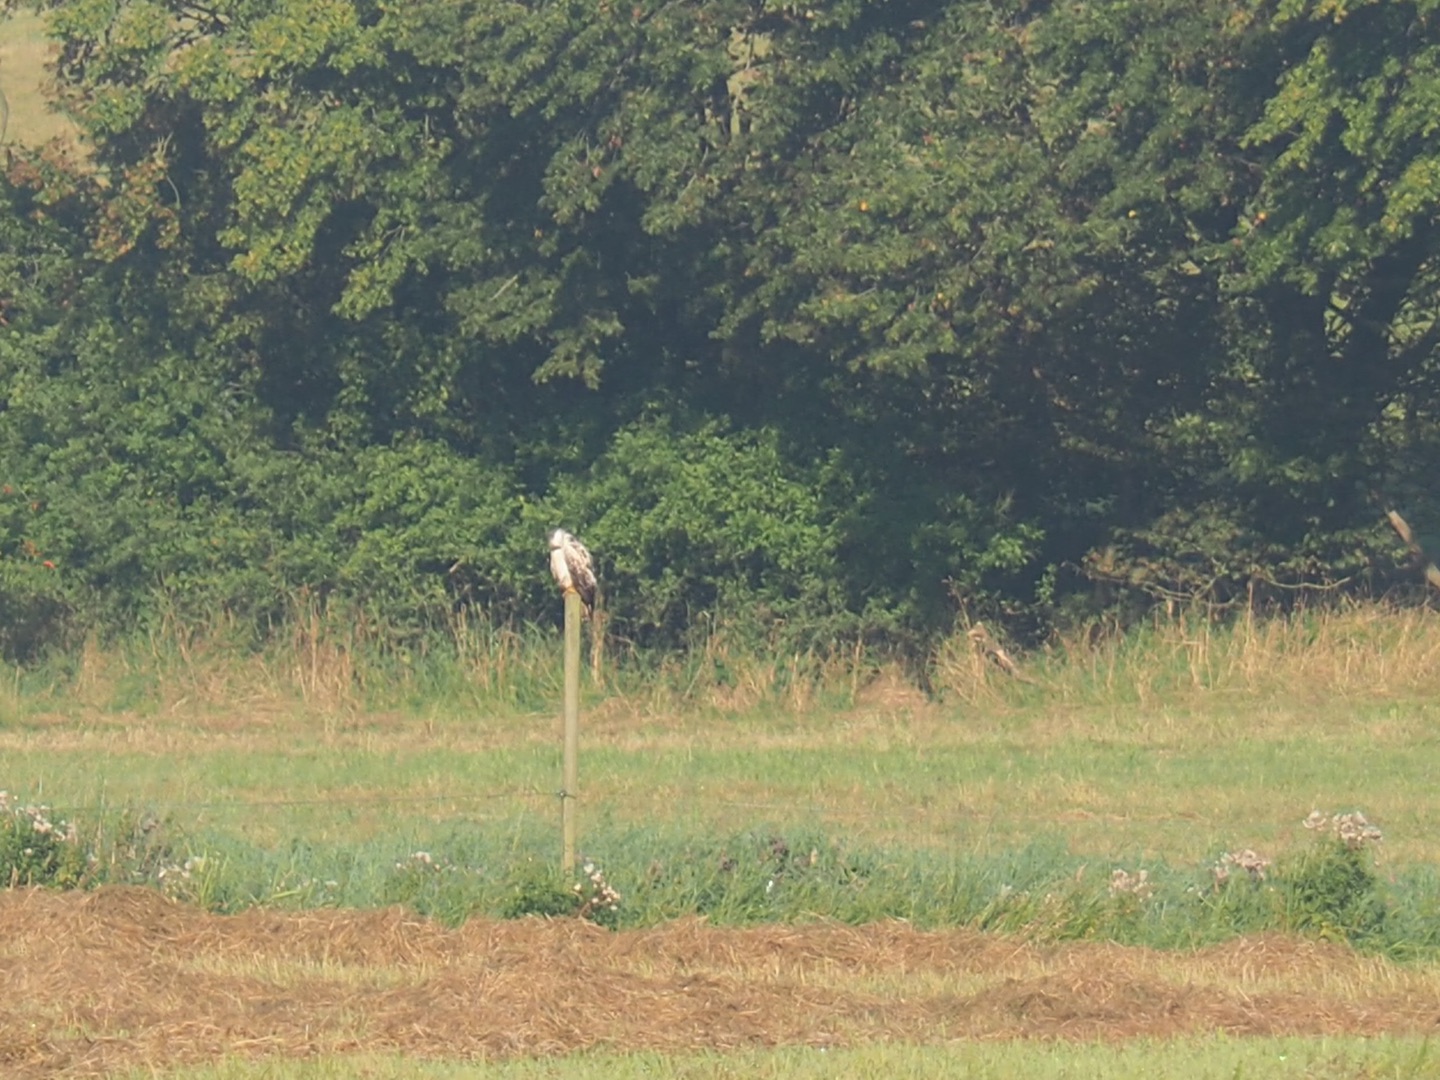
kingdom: Animalia
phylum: Chordata
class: Aves
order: Accipitriformes
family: Accipitridae
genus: Buteo
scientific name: Buteo buteo
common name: Musvåge
